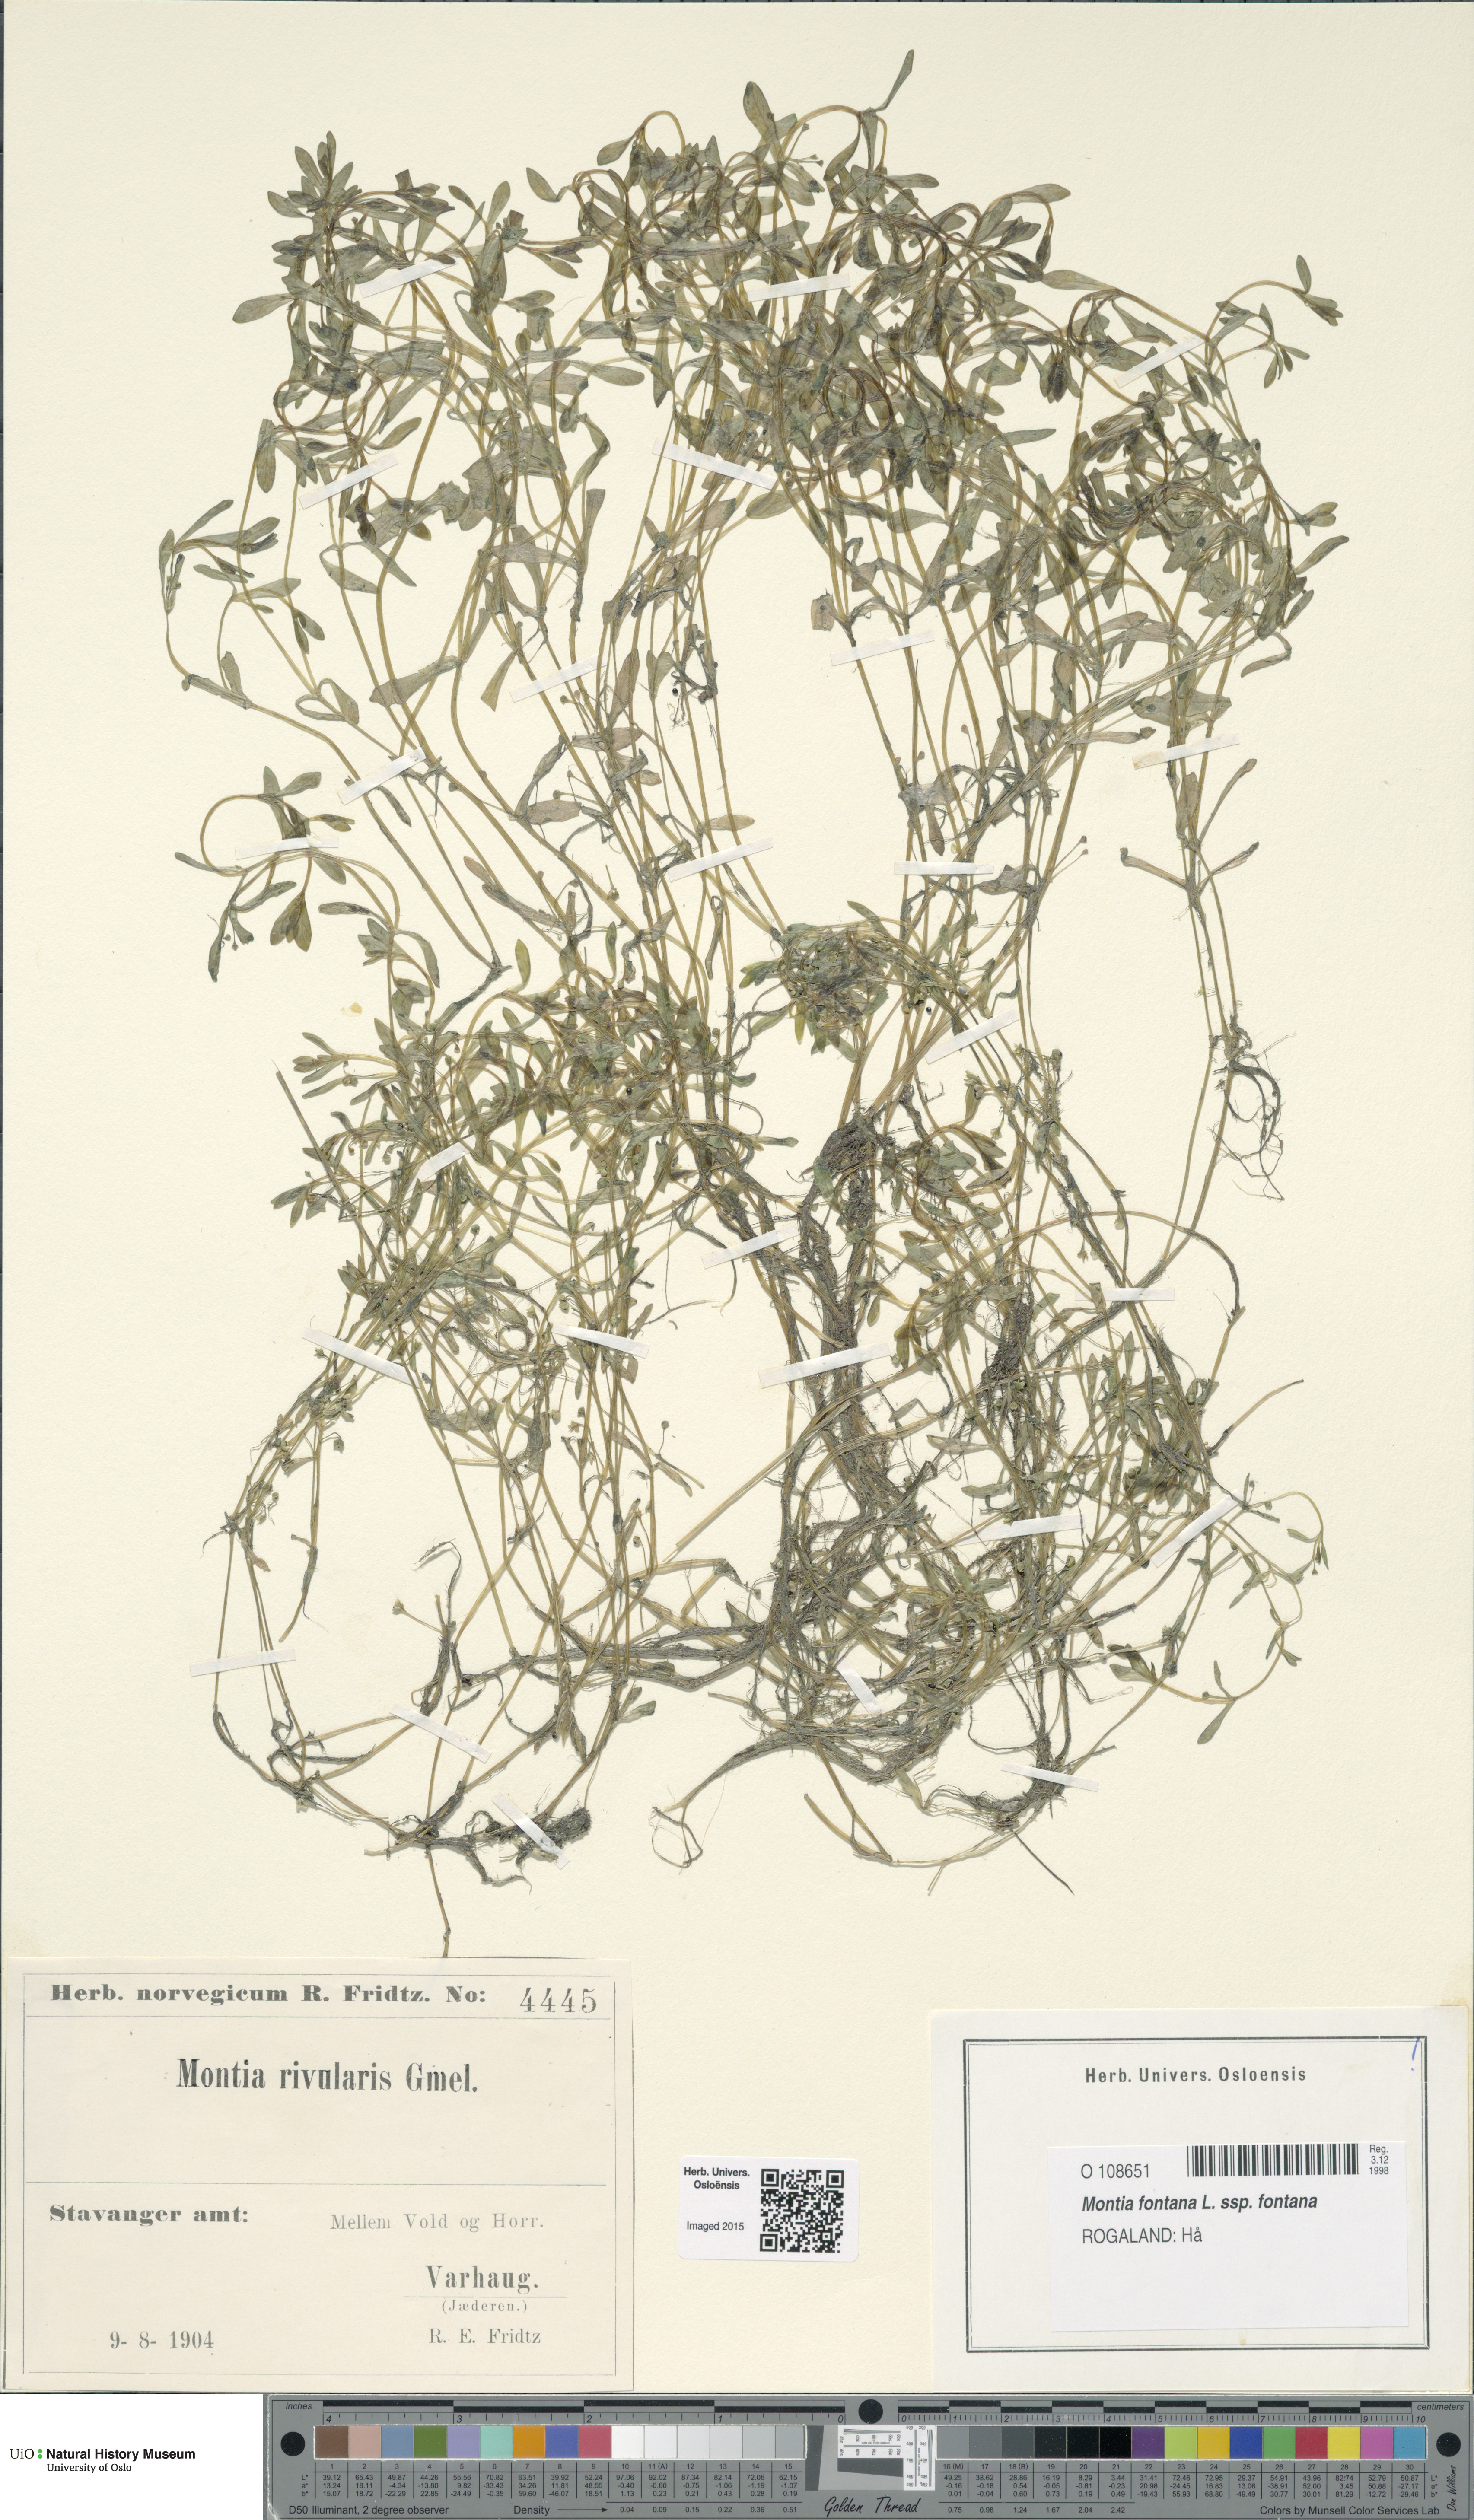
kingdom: Plantae
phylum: Tracheophyta
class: Magnoliopsida
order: Caryophyllales
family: Montiaceae
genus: Montia
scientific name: Montia fontana
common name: Blinks
